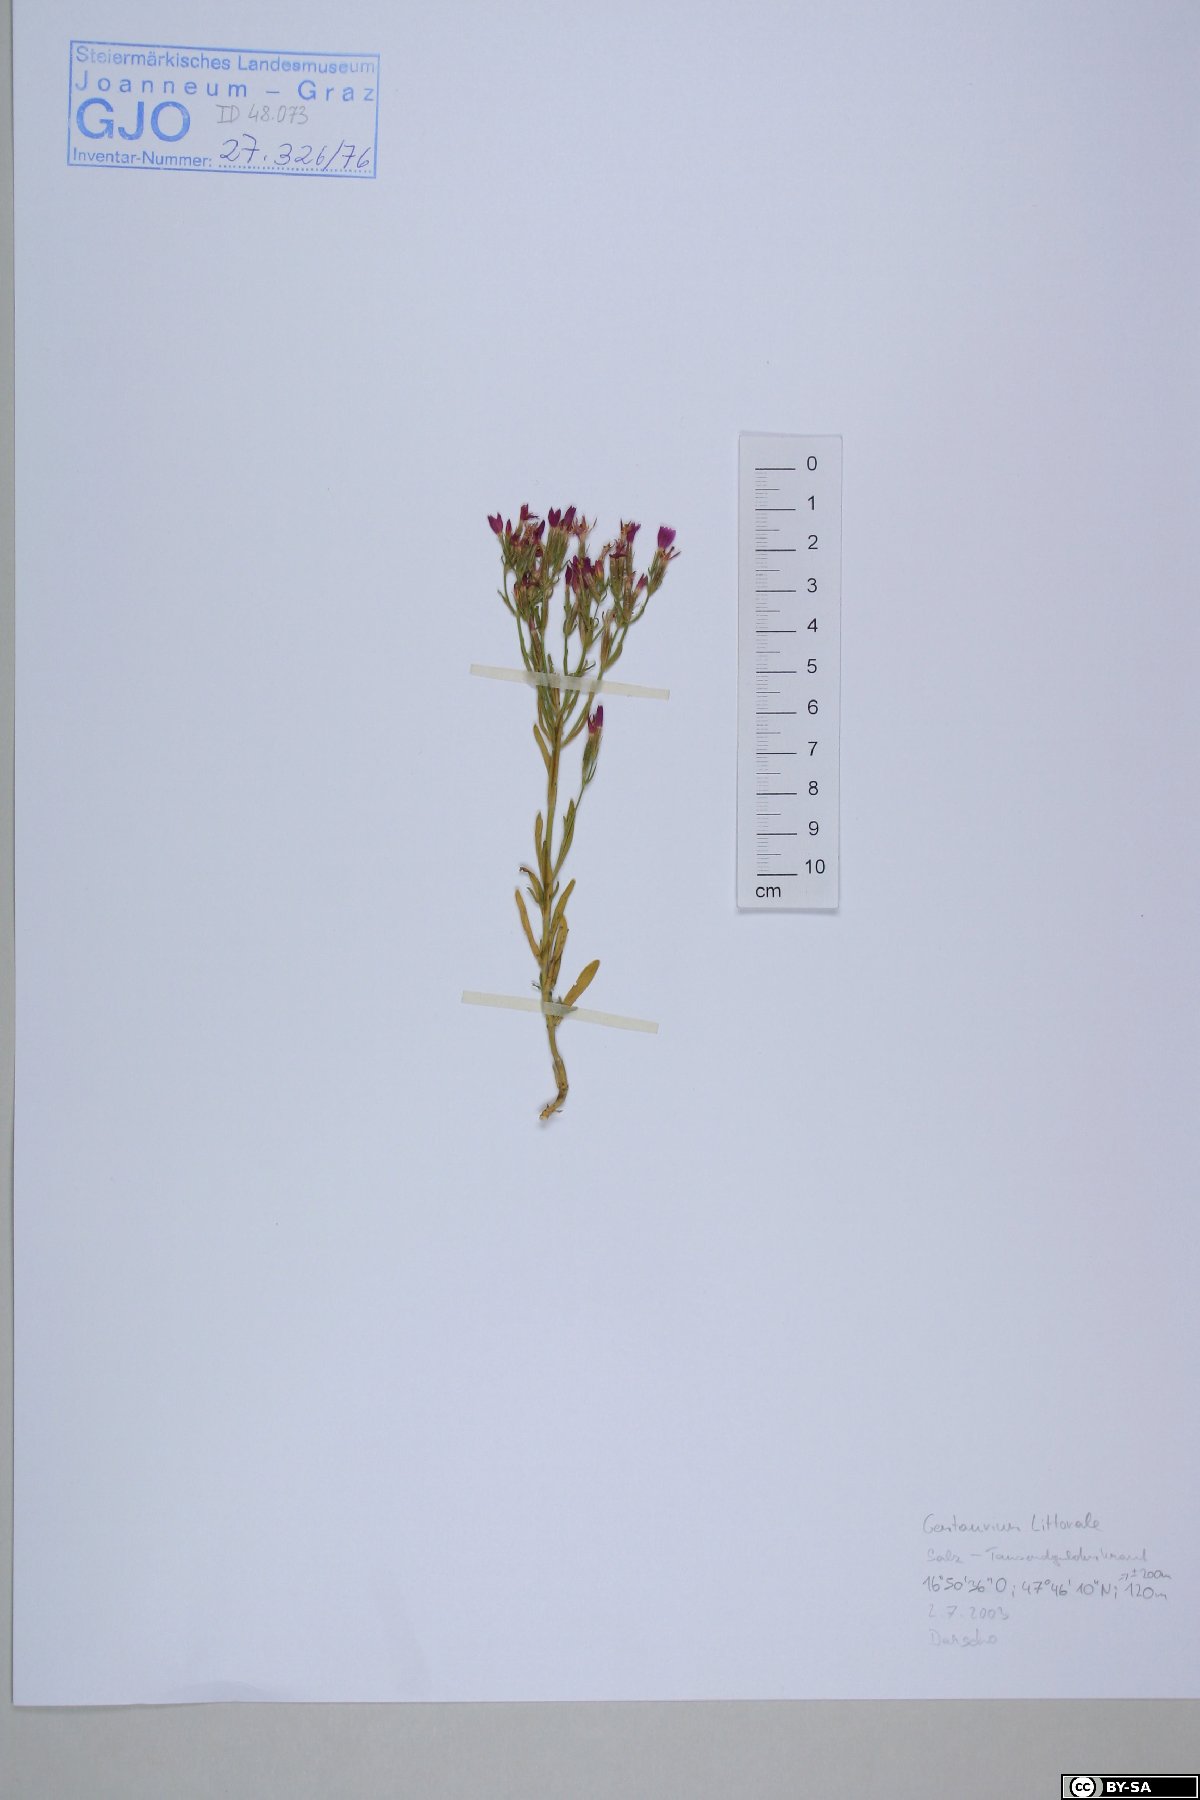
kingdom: Plantae
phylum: Tracheophyta
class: Magnoliopsida
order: Gentianales
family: Gentianaceae
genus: Centaurium
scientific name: Centaurium littorale
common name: Seaside centaury
